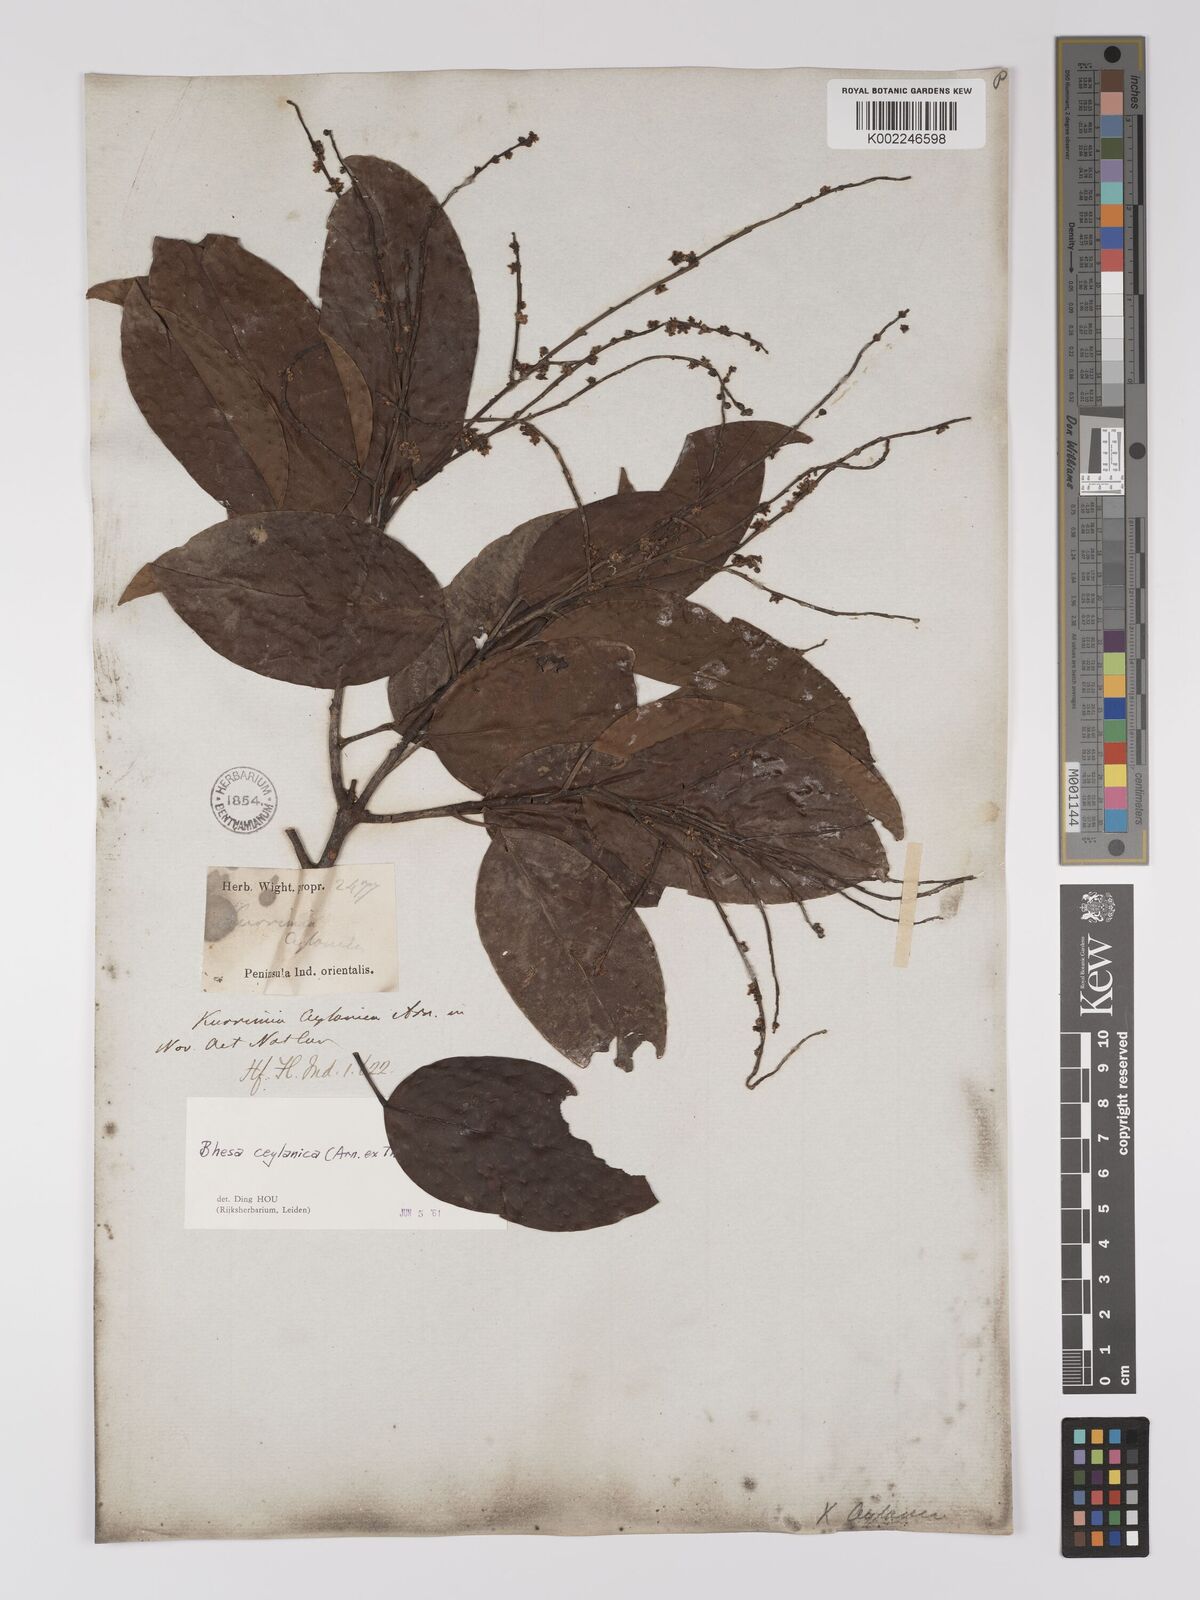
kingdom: Plantae
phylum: Tracheophyta
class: Magnoliopsida
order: Malpighiales
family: Centroplacaceae
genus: Bhesa
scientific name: Bhesa ceylanica
